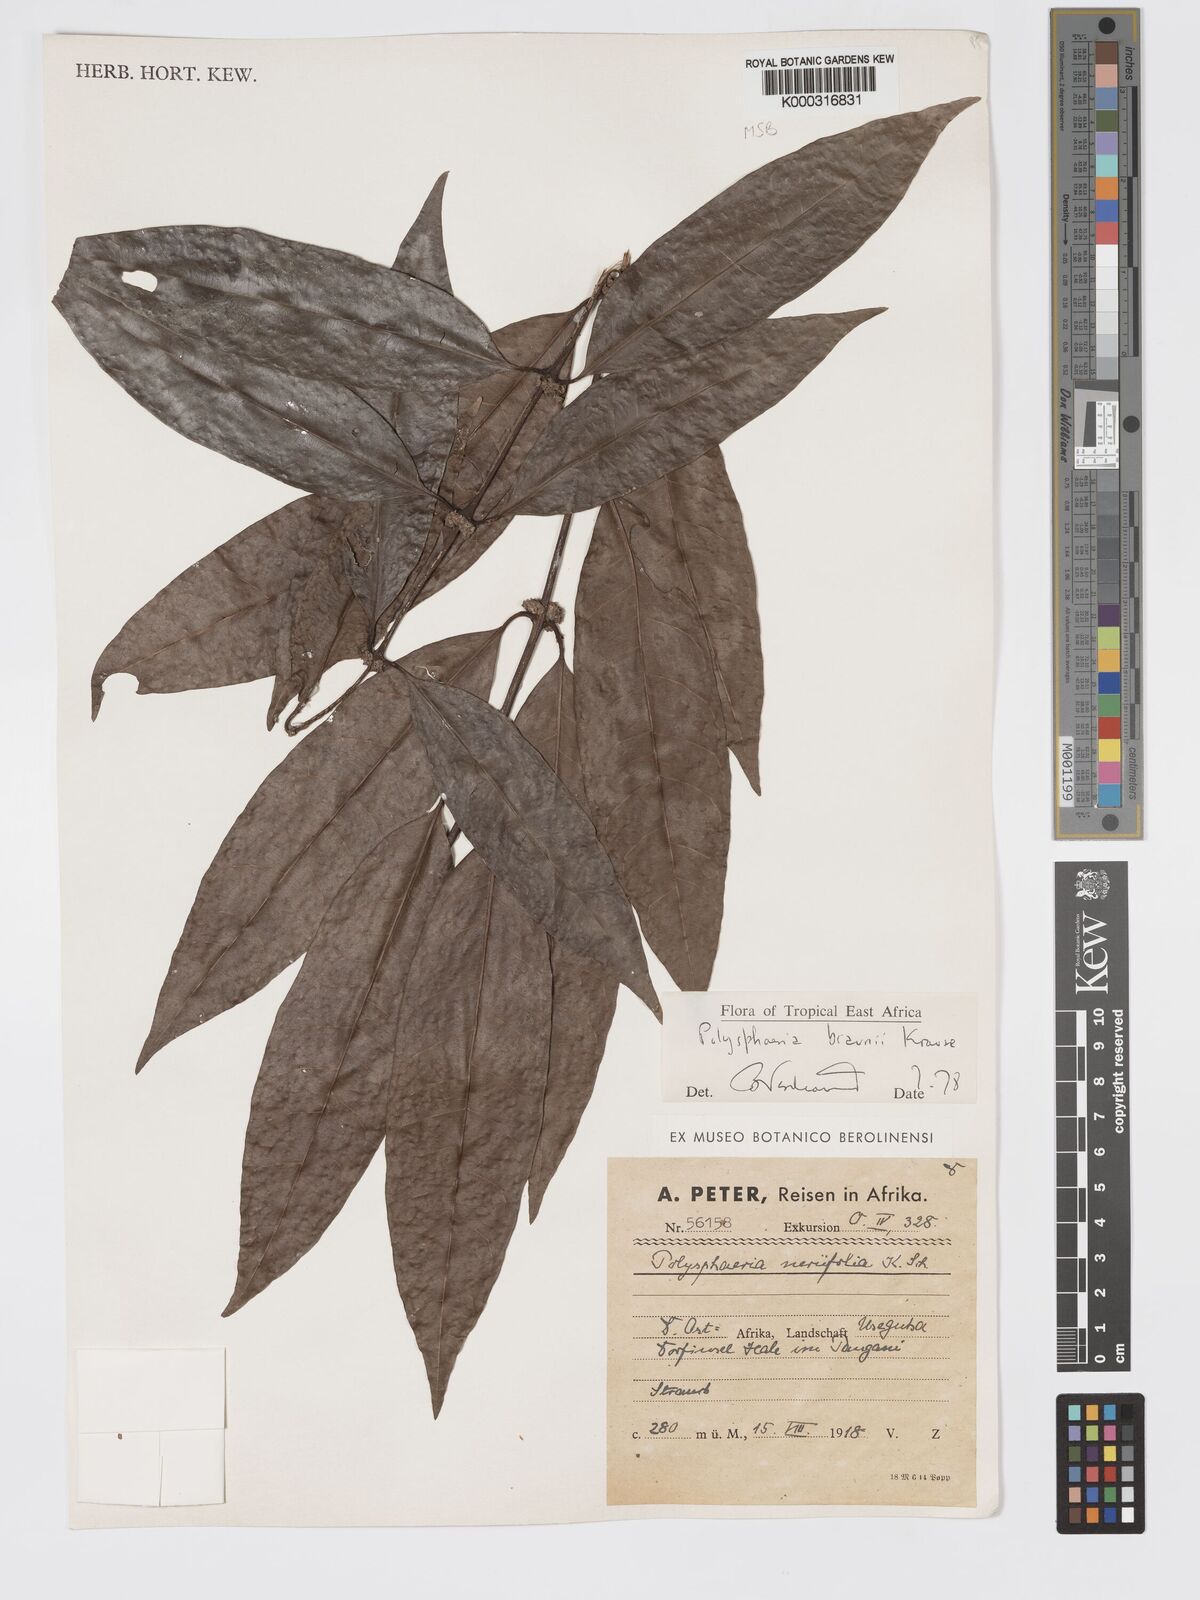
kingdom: Plantae
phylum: Tracheophyta
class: Magnoliopsida
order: Gentianales
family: Rubiaceae
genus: Polysphaeria
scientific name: Polysphaeria braunii
